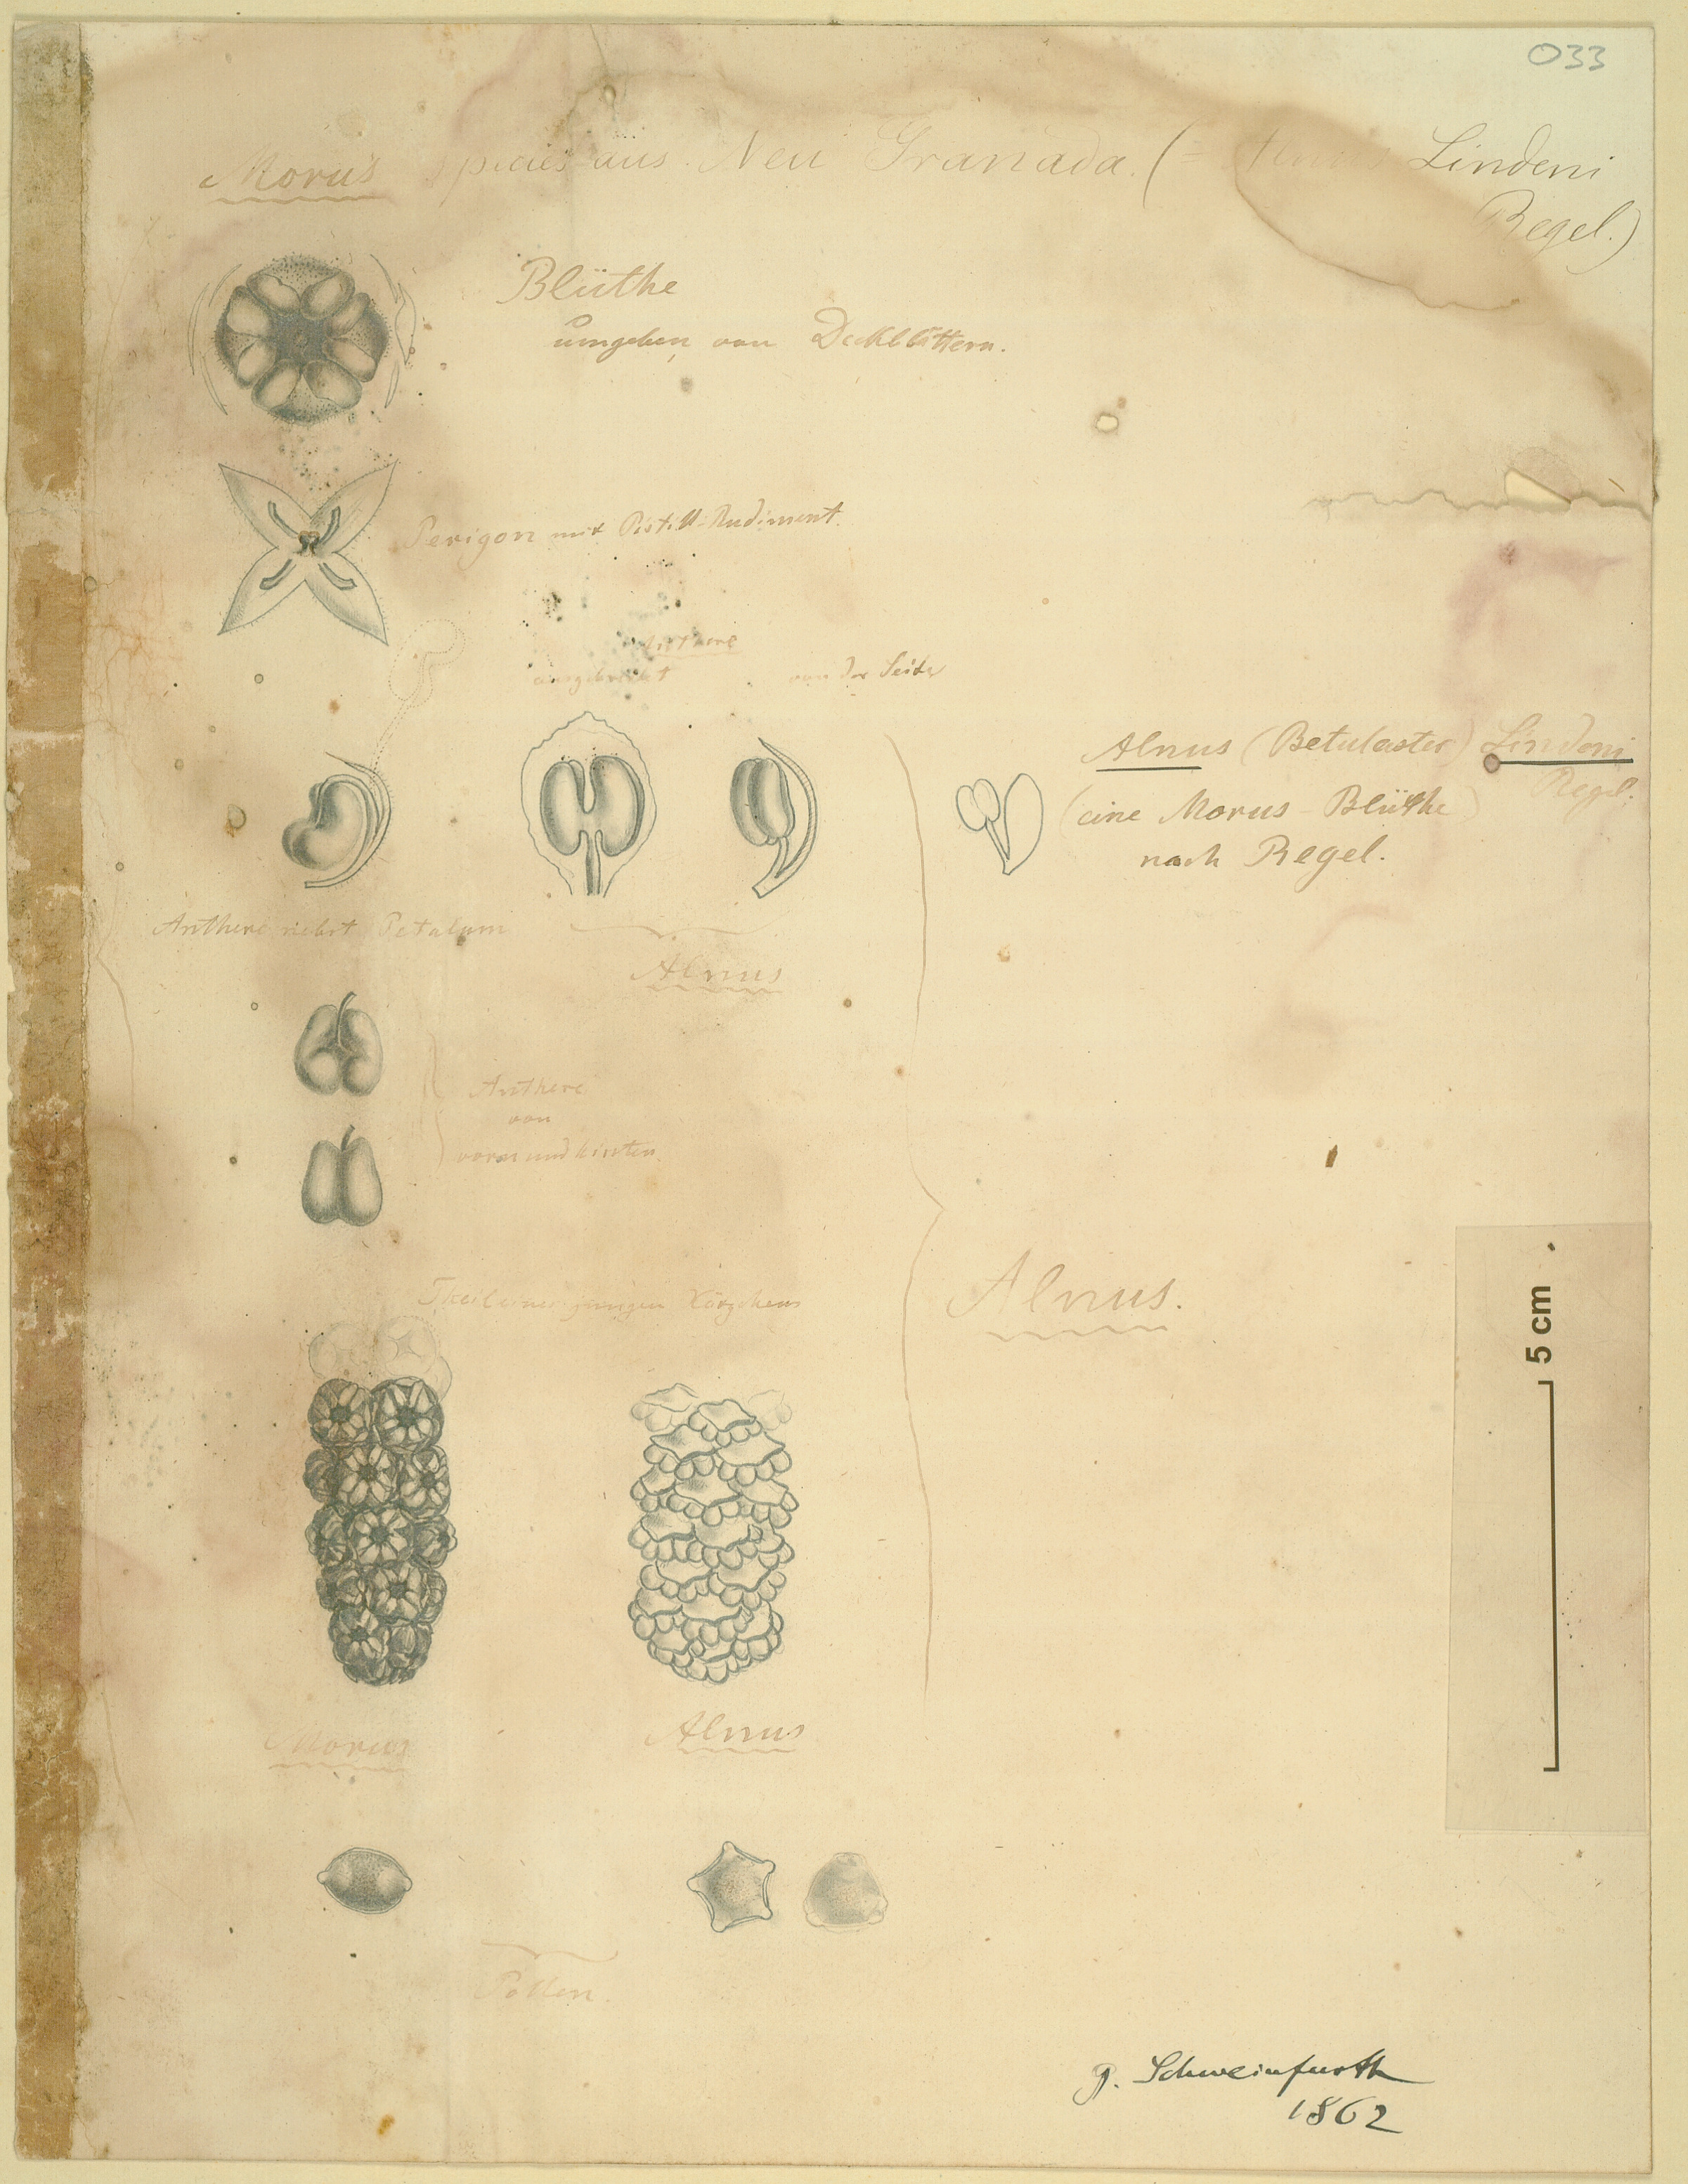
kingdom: Plantae
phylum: Tracheophyta
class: Magnoliopsida
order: Fagales
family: Betulaceae
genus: Alnus
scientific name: Alnus acuminata
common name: Alder
